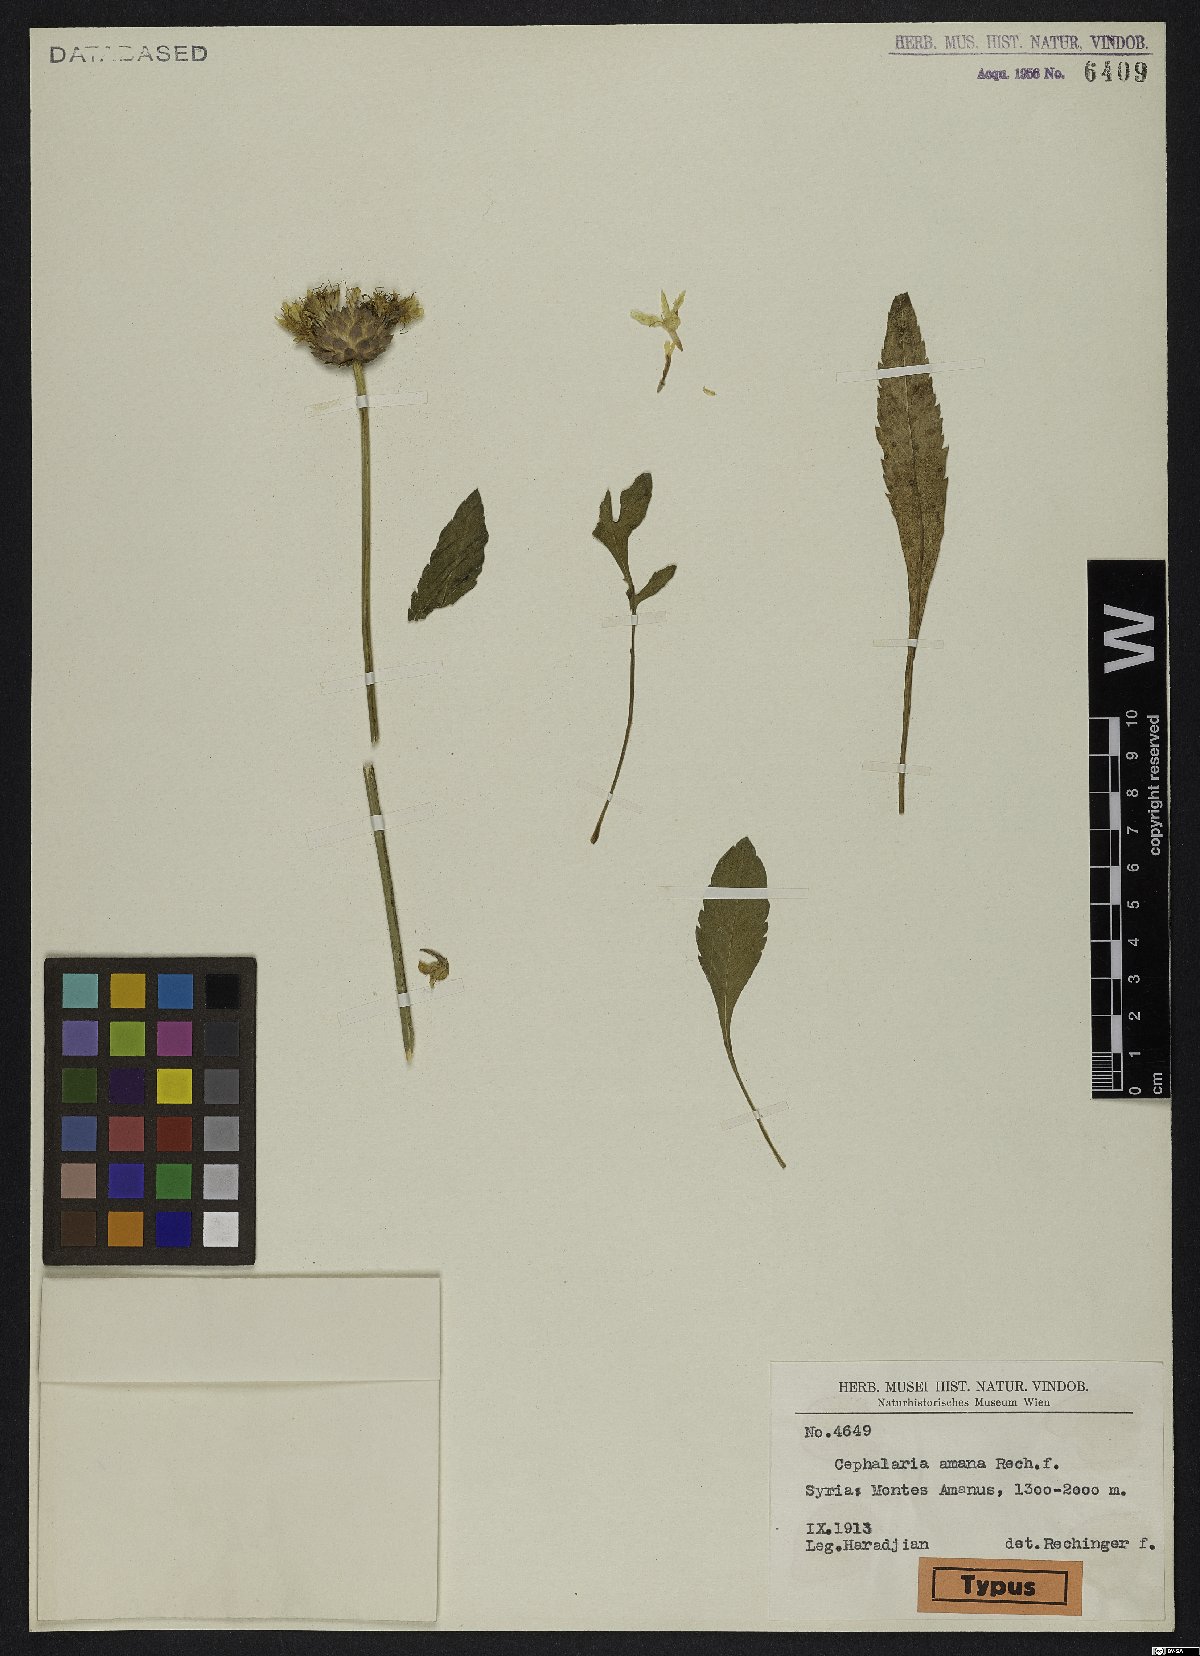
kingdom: Plantae
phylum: Tracheophyta
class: Magnoliopsida
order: Dipsacales
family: Caprifoliaceae
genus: Cephalaria
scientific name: Cephalaria taurica
